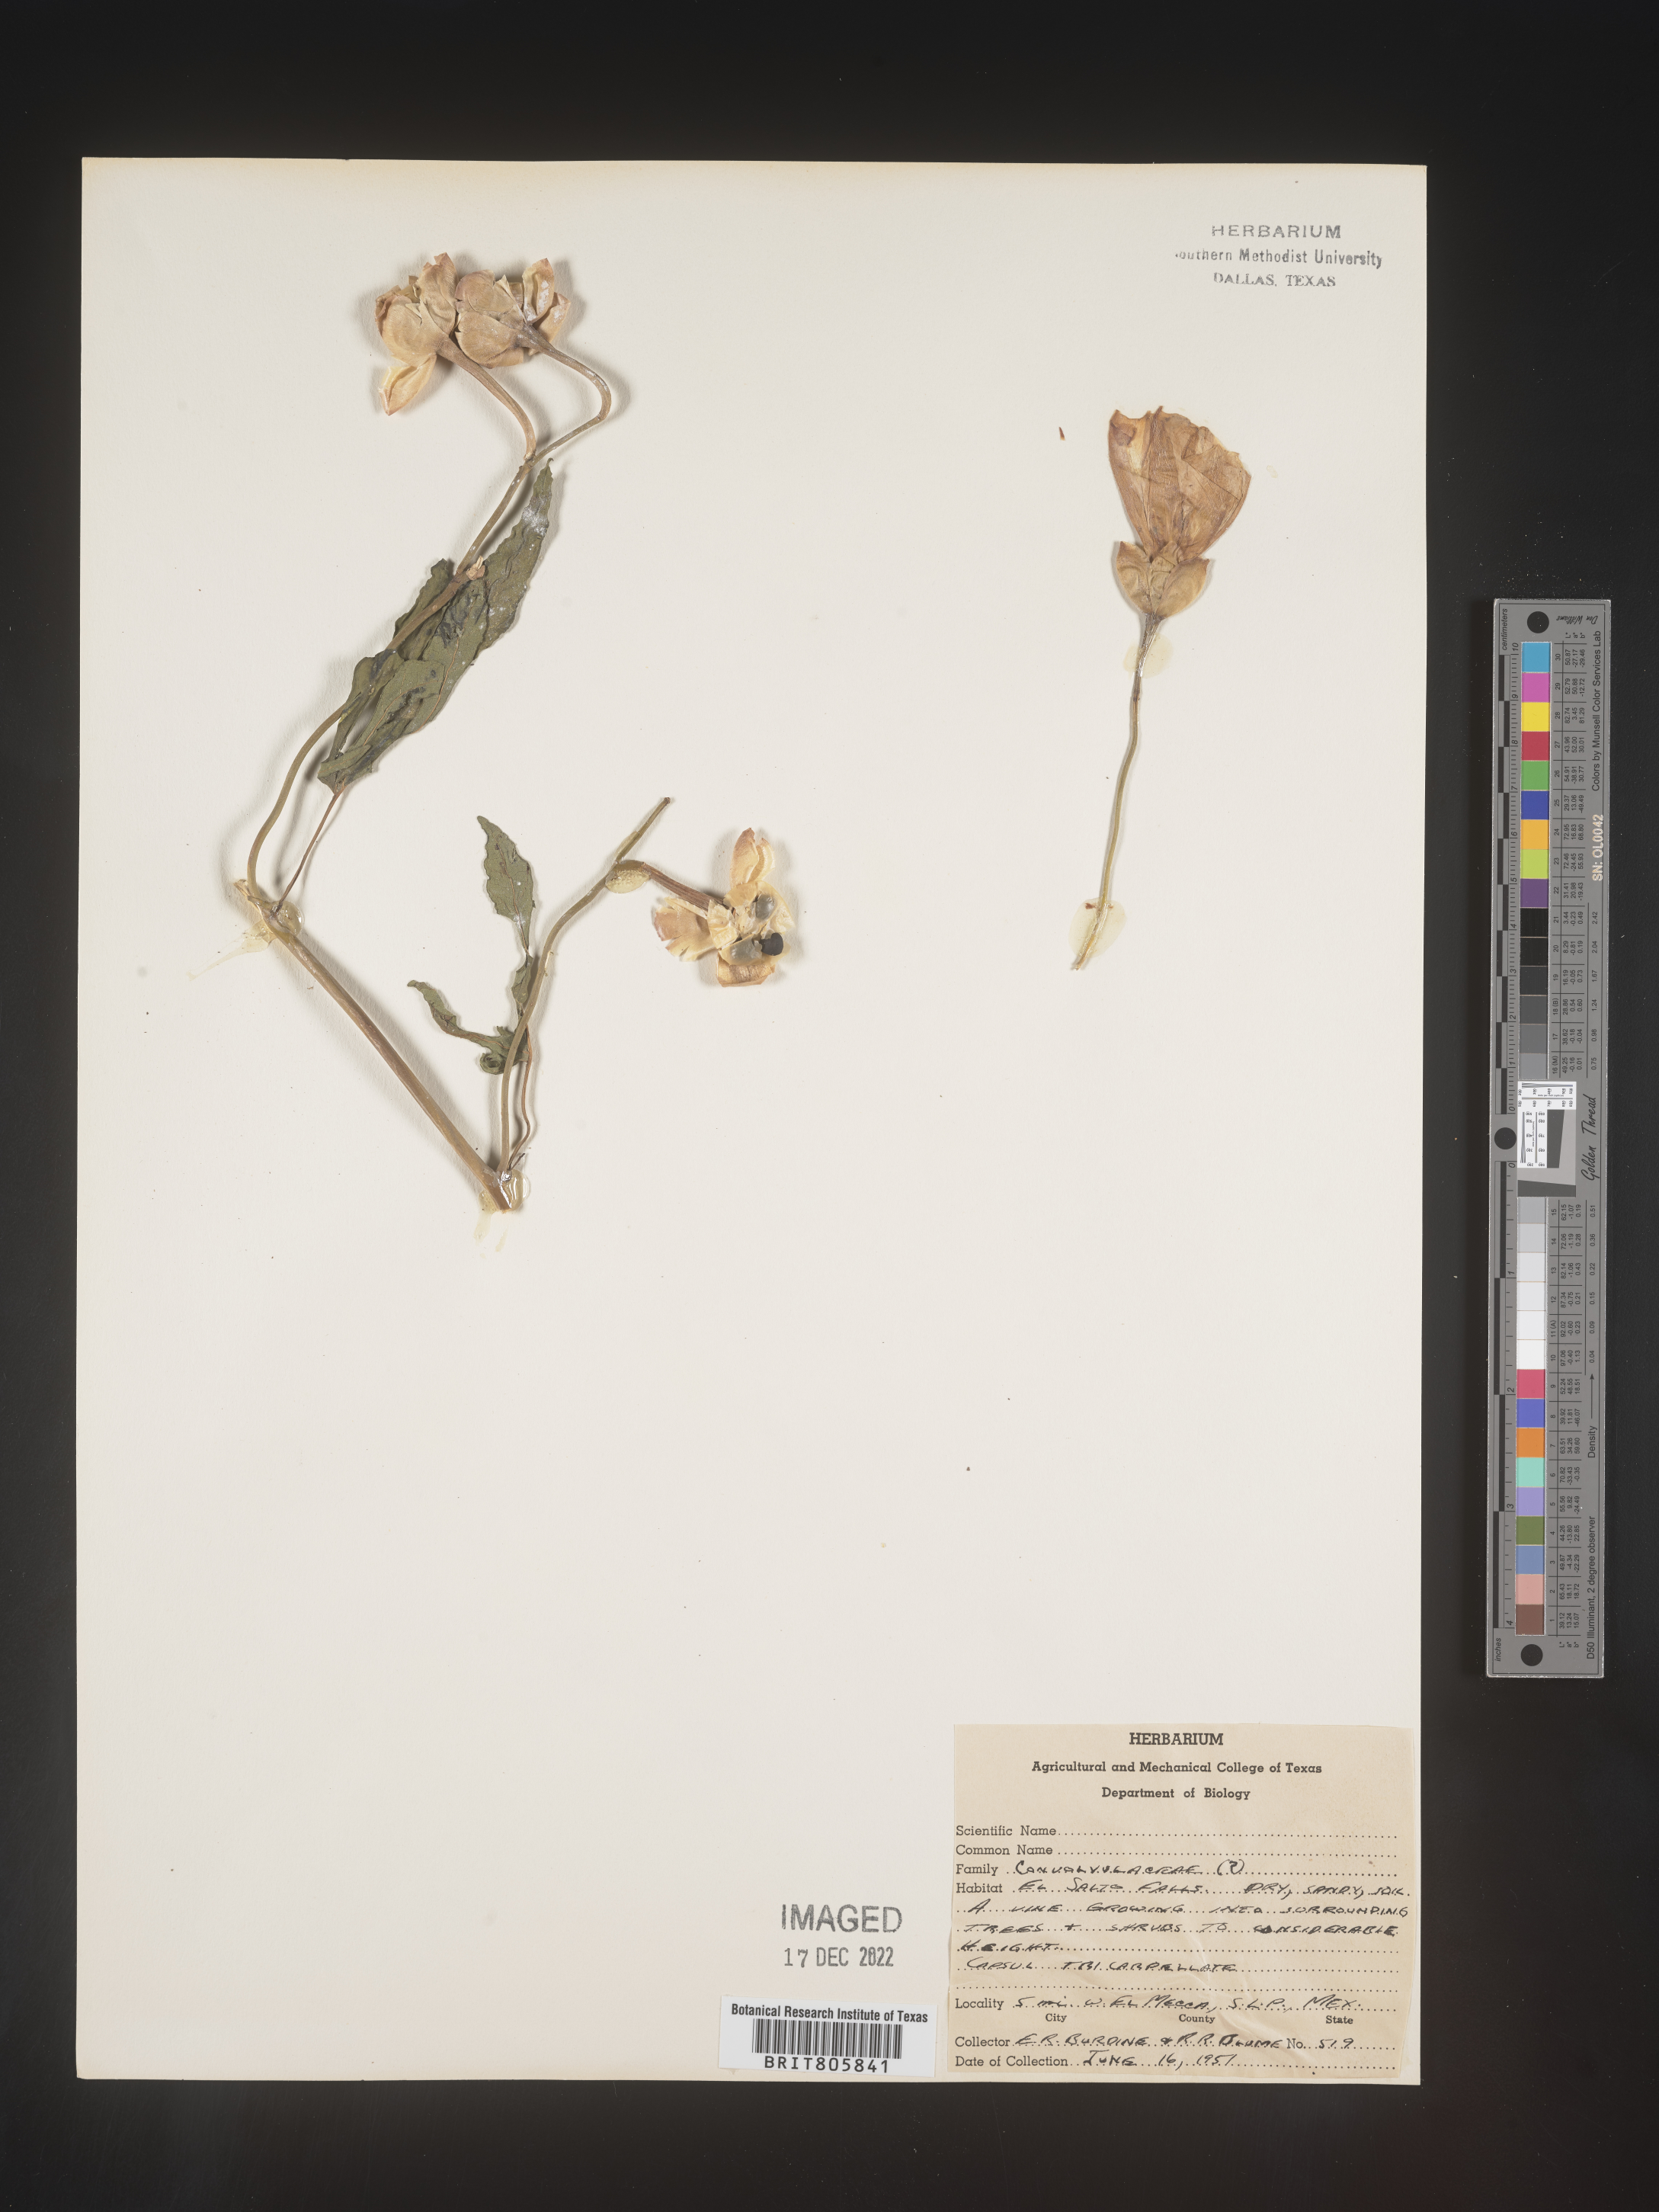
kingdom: Plantae
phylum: Tracheophyta
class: Magnoliopsida
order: Solanales
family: Convolvulaceae
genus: Merremia
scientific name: Merremia
